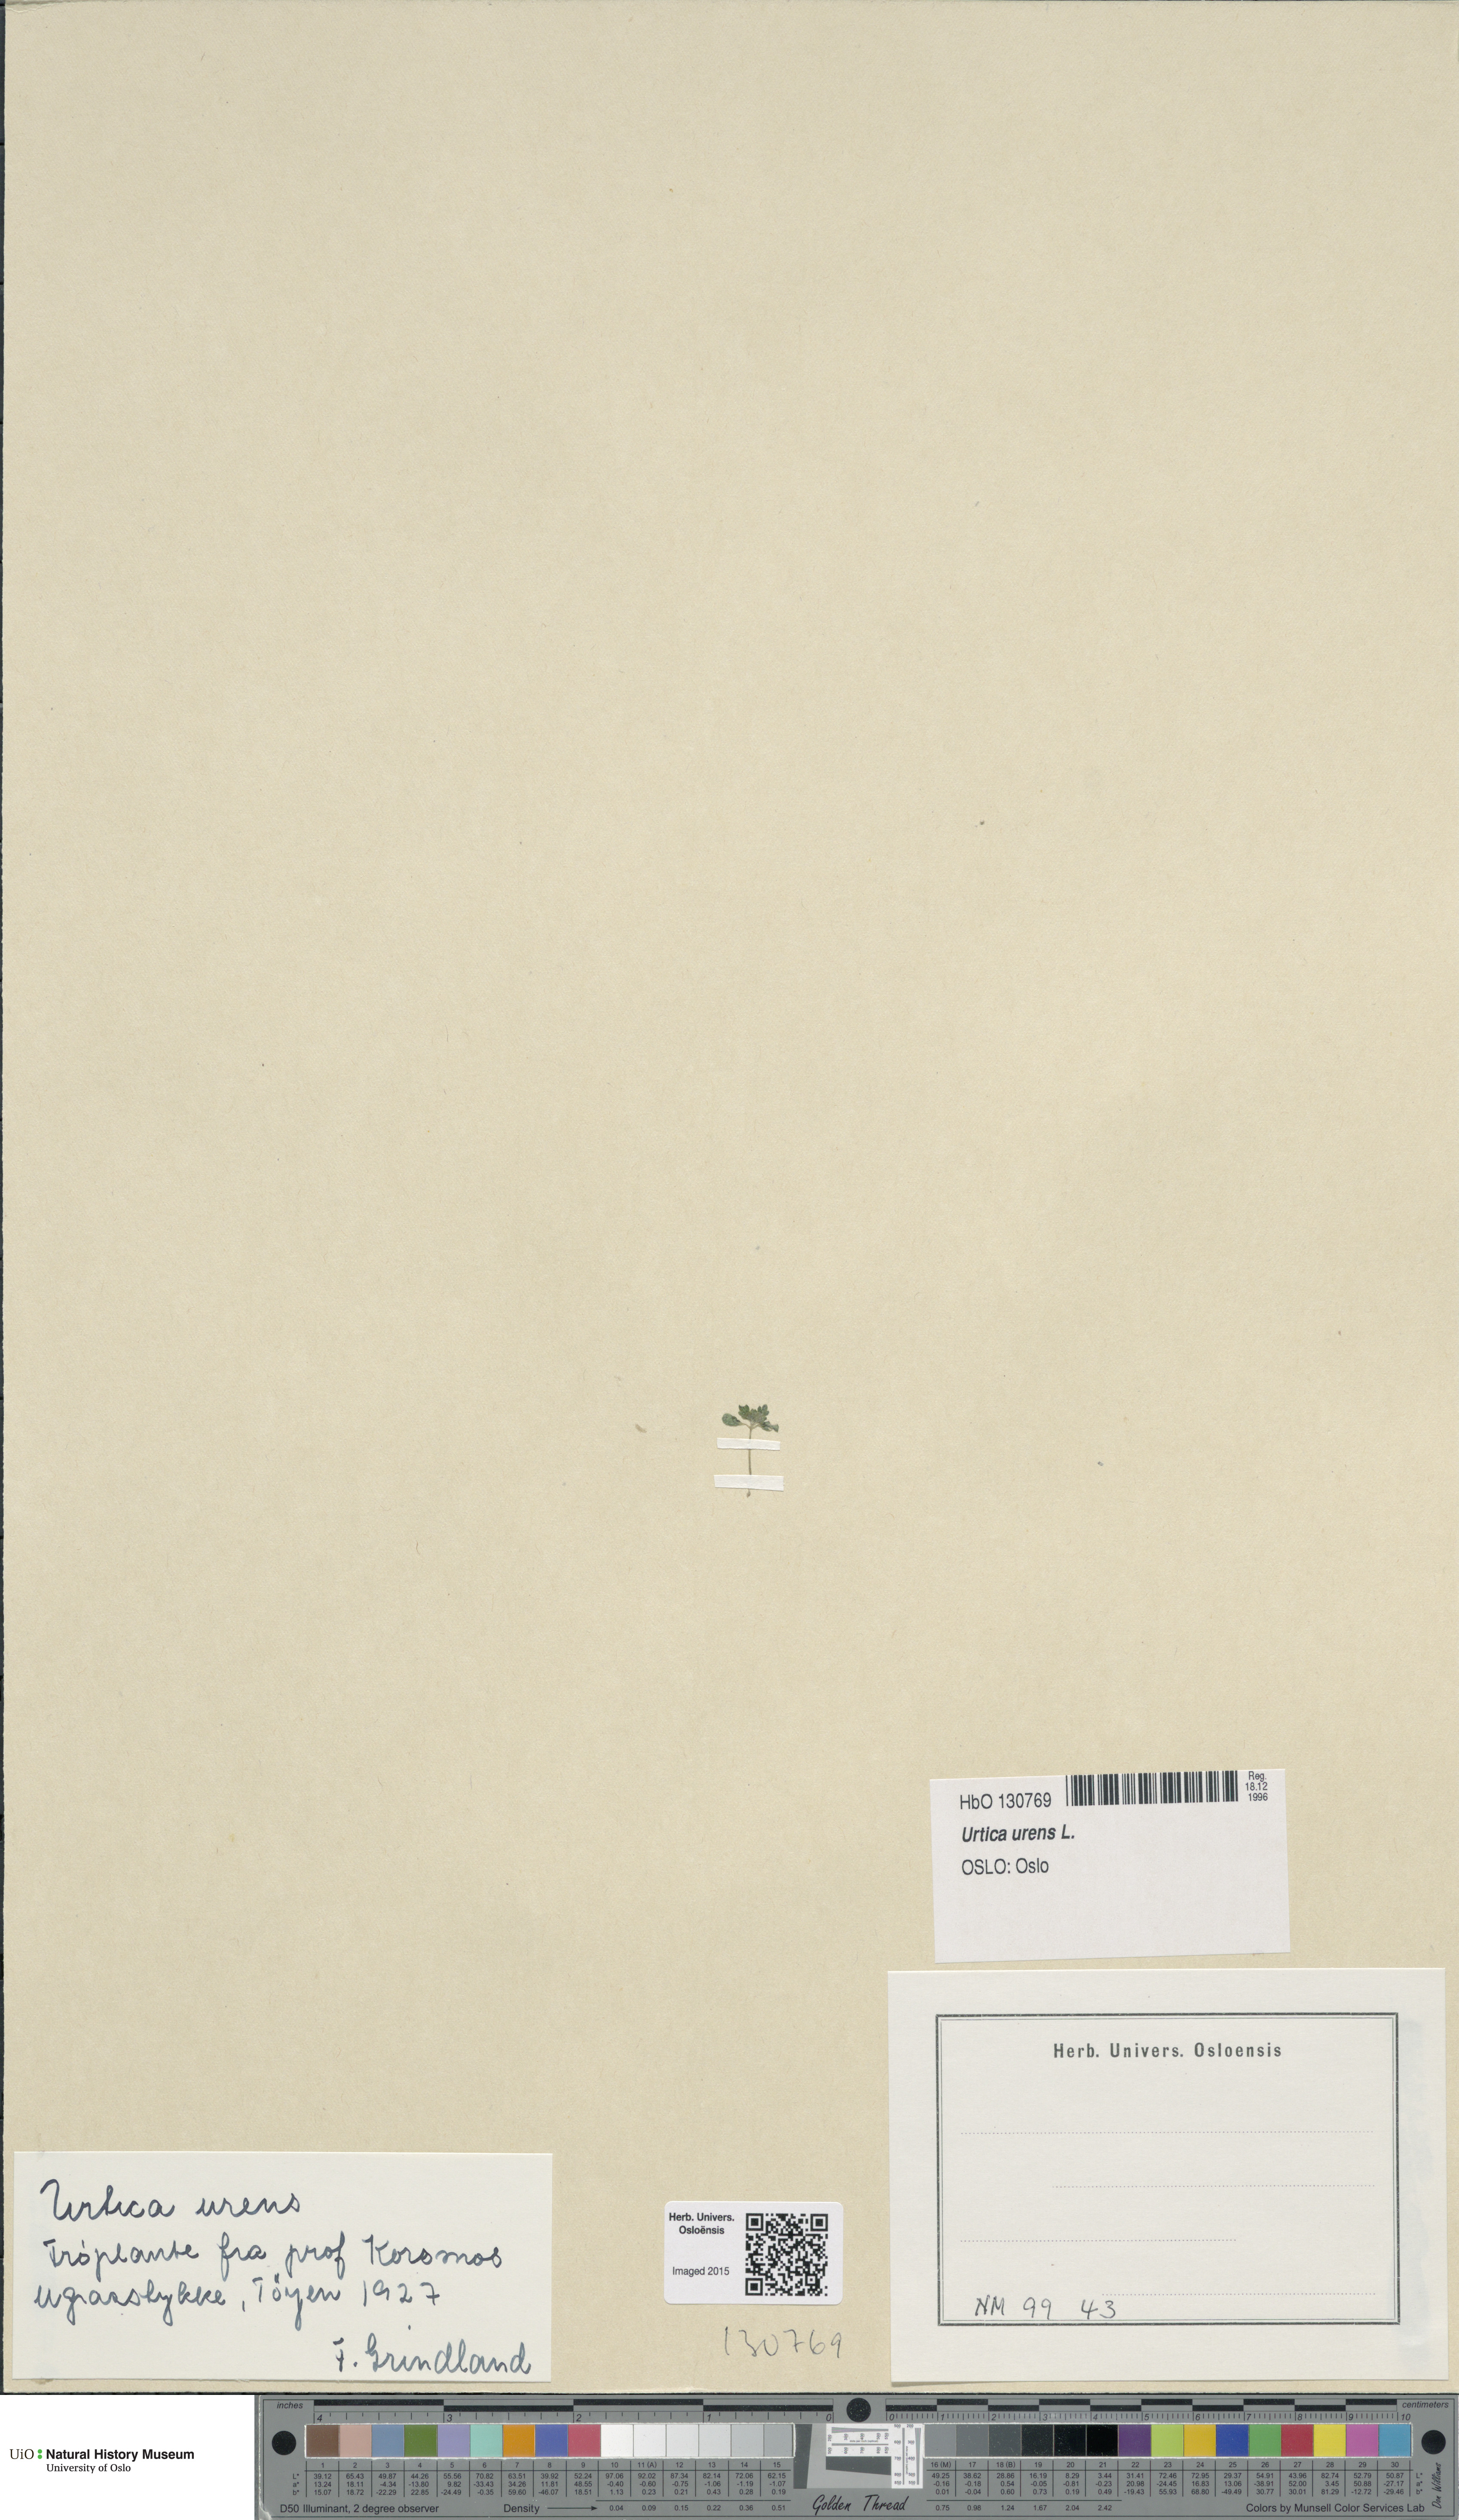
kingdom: Plantae
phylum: Tracheophyta
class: Magnoliopsida
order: Rosales
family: Urticaceae
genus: Urtica
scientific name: Urtica urens
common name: Dwarf nettle
